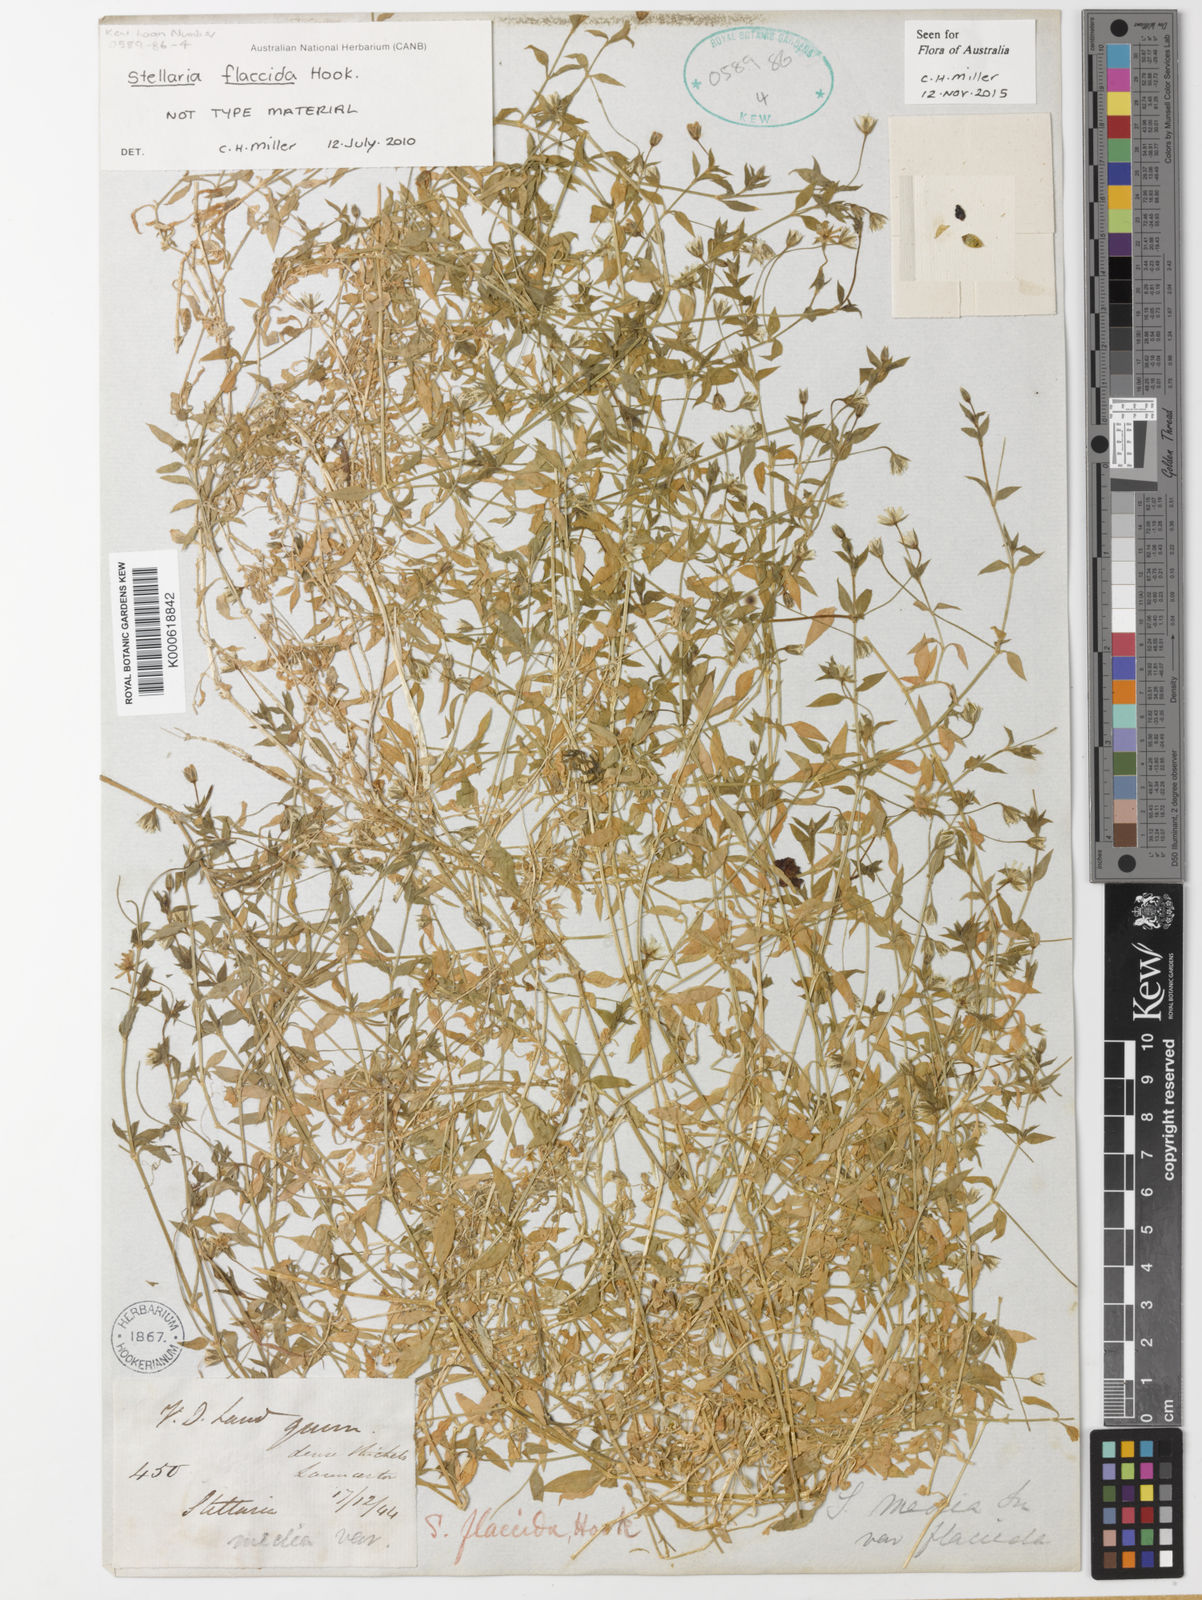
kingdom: Plantae
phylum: Tracheophyta
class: Magnoliopsida
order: Caryophyllales
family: Caryophyllaceae
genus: Stellaria
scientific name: Stellaria flaccida
